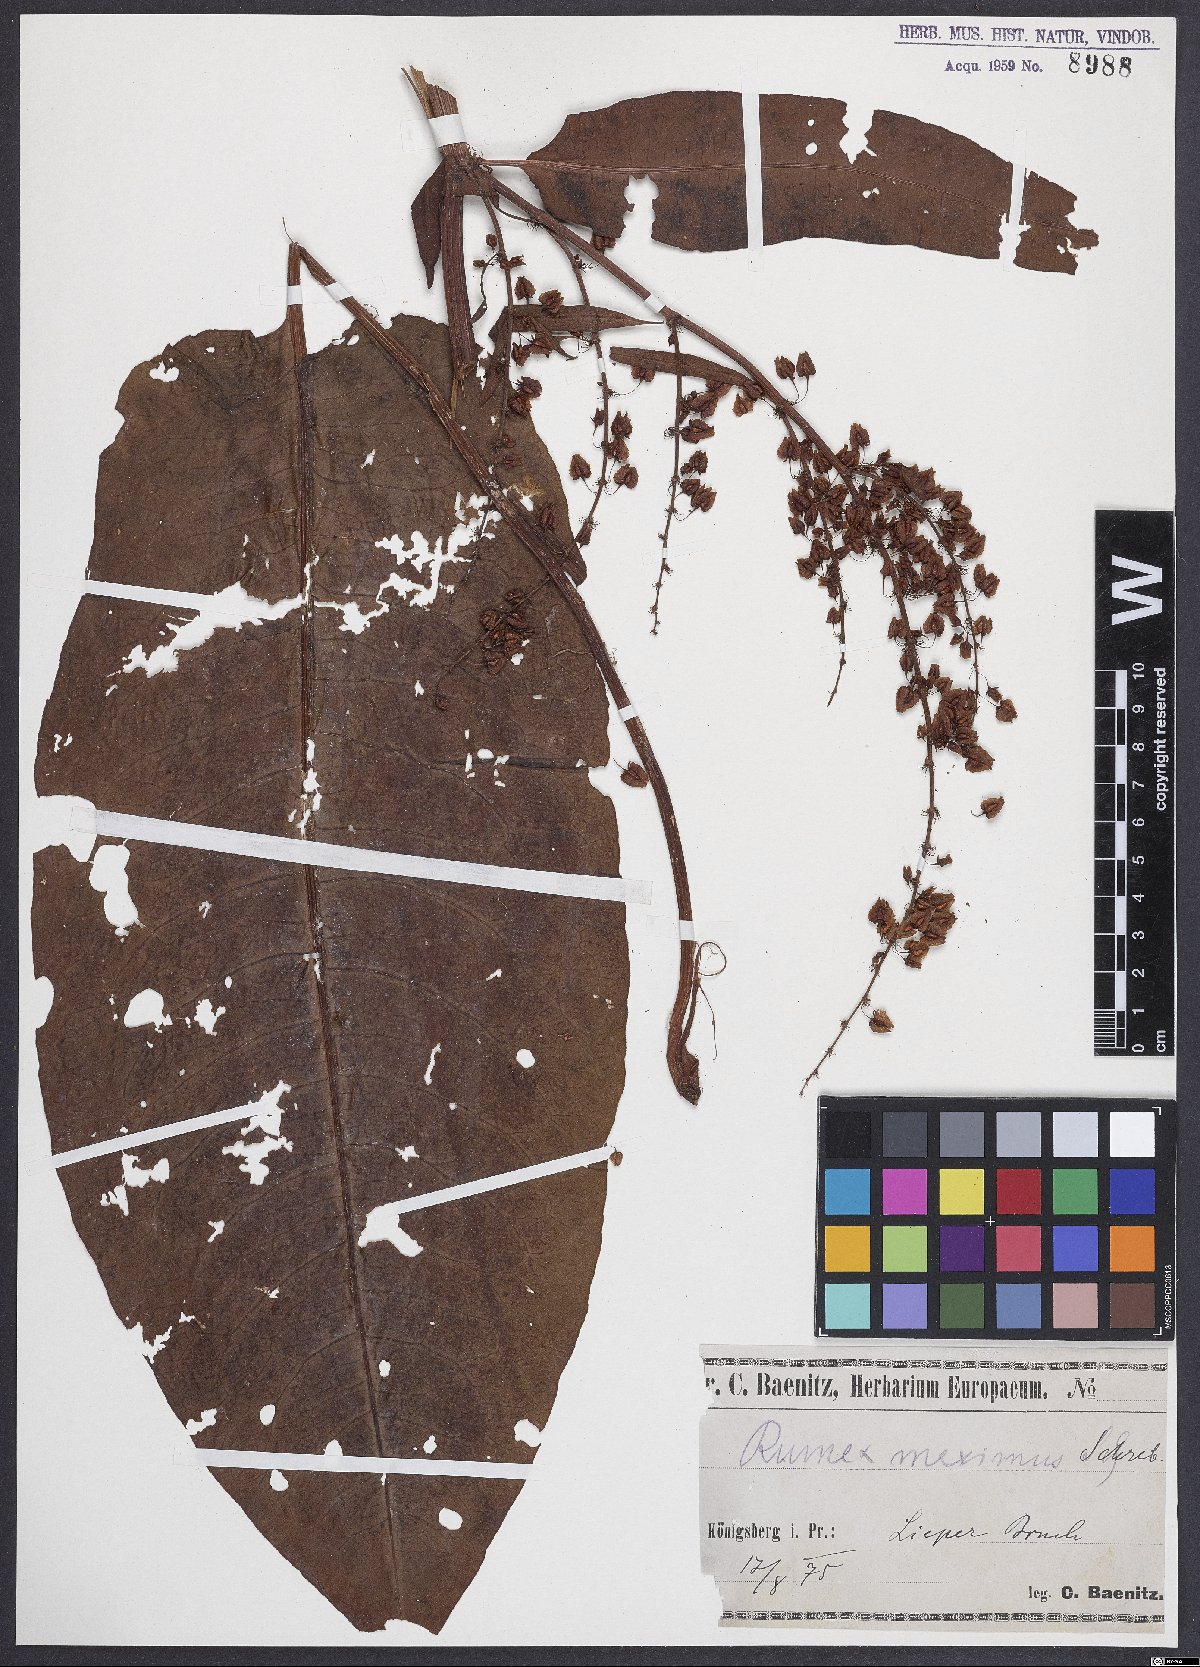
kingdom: Plantae
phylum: Tracheophyta
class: Magnoliopsida
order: Caryophyllales
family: Polygonaceae
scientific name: Polygonaceae
